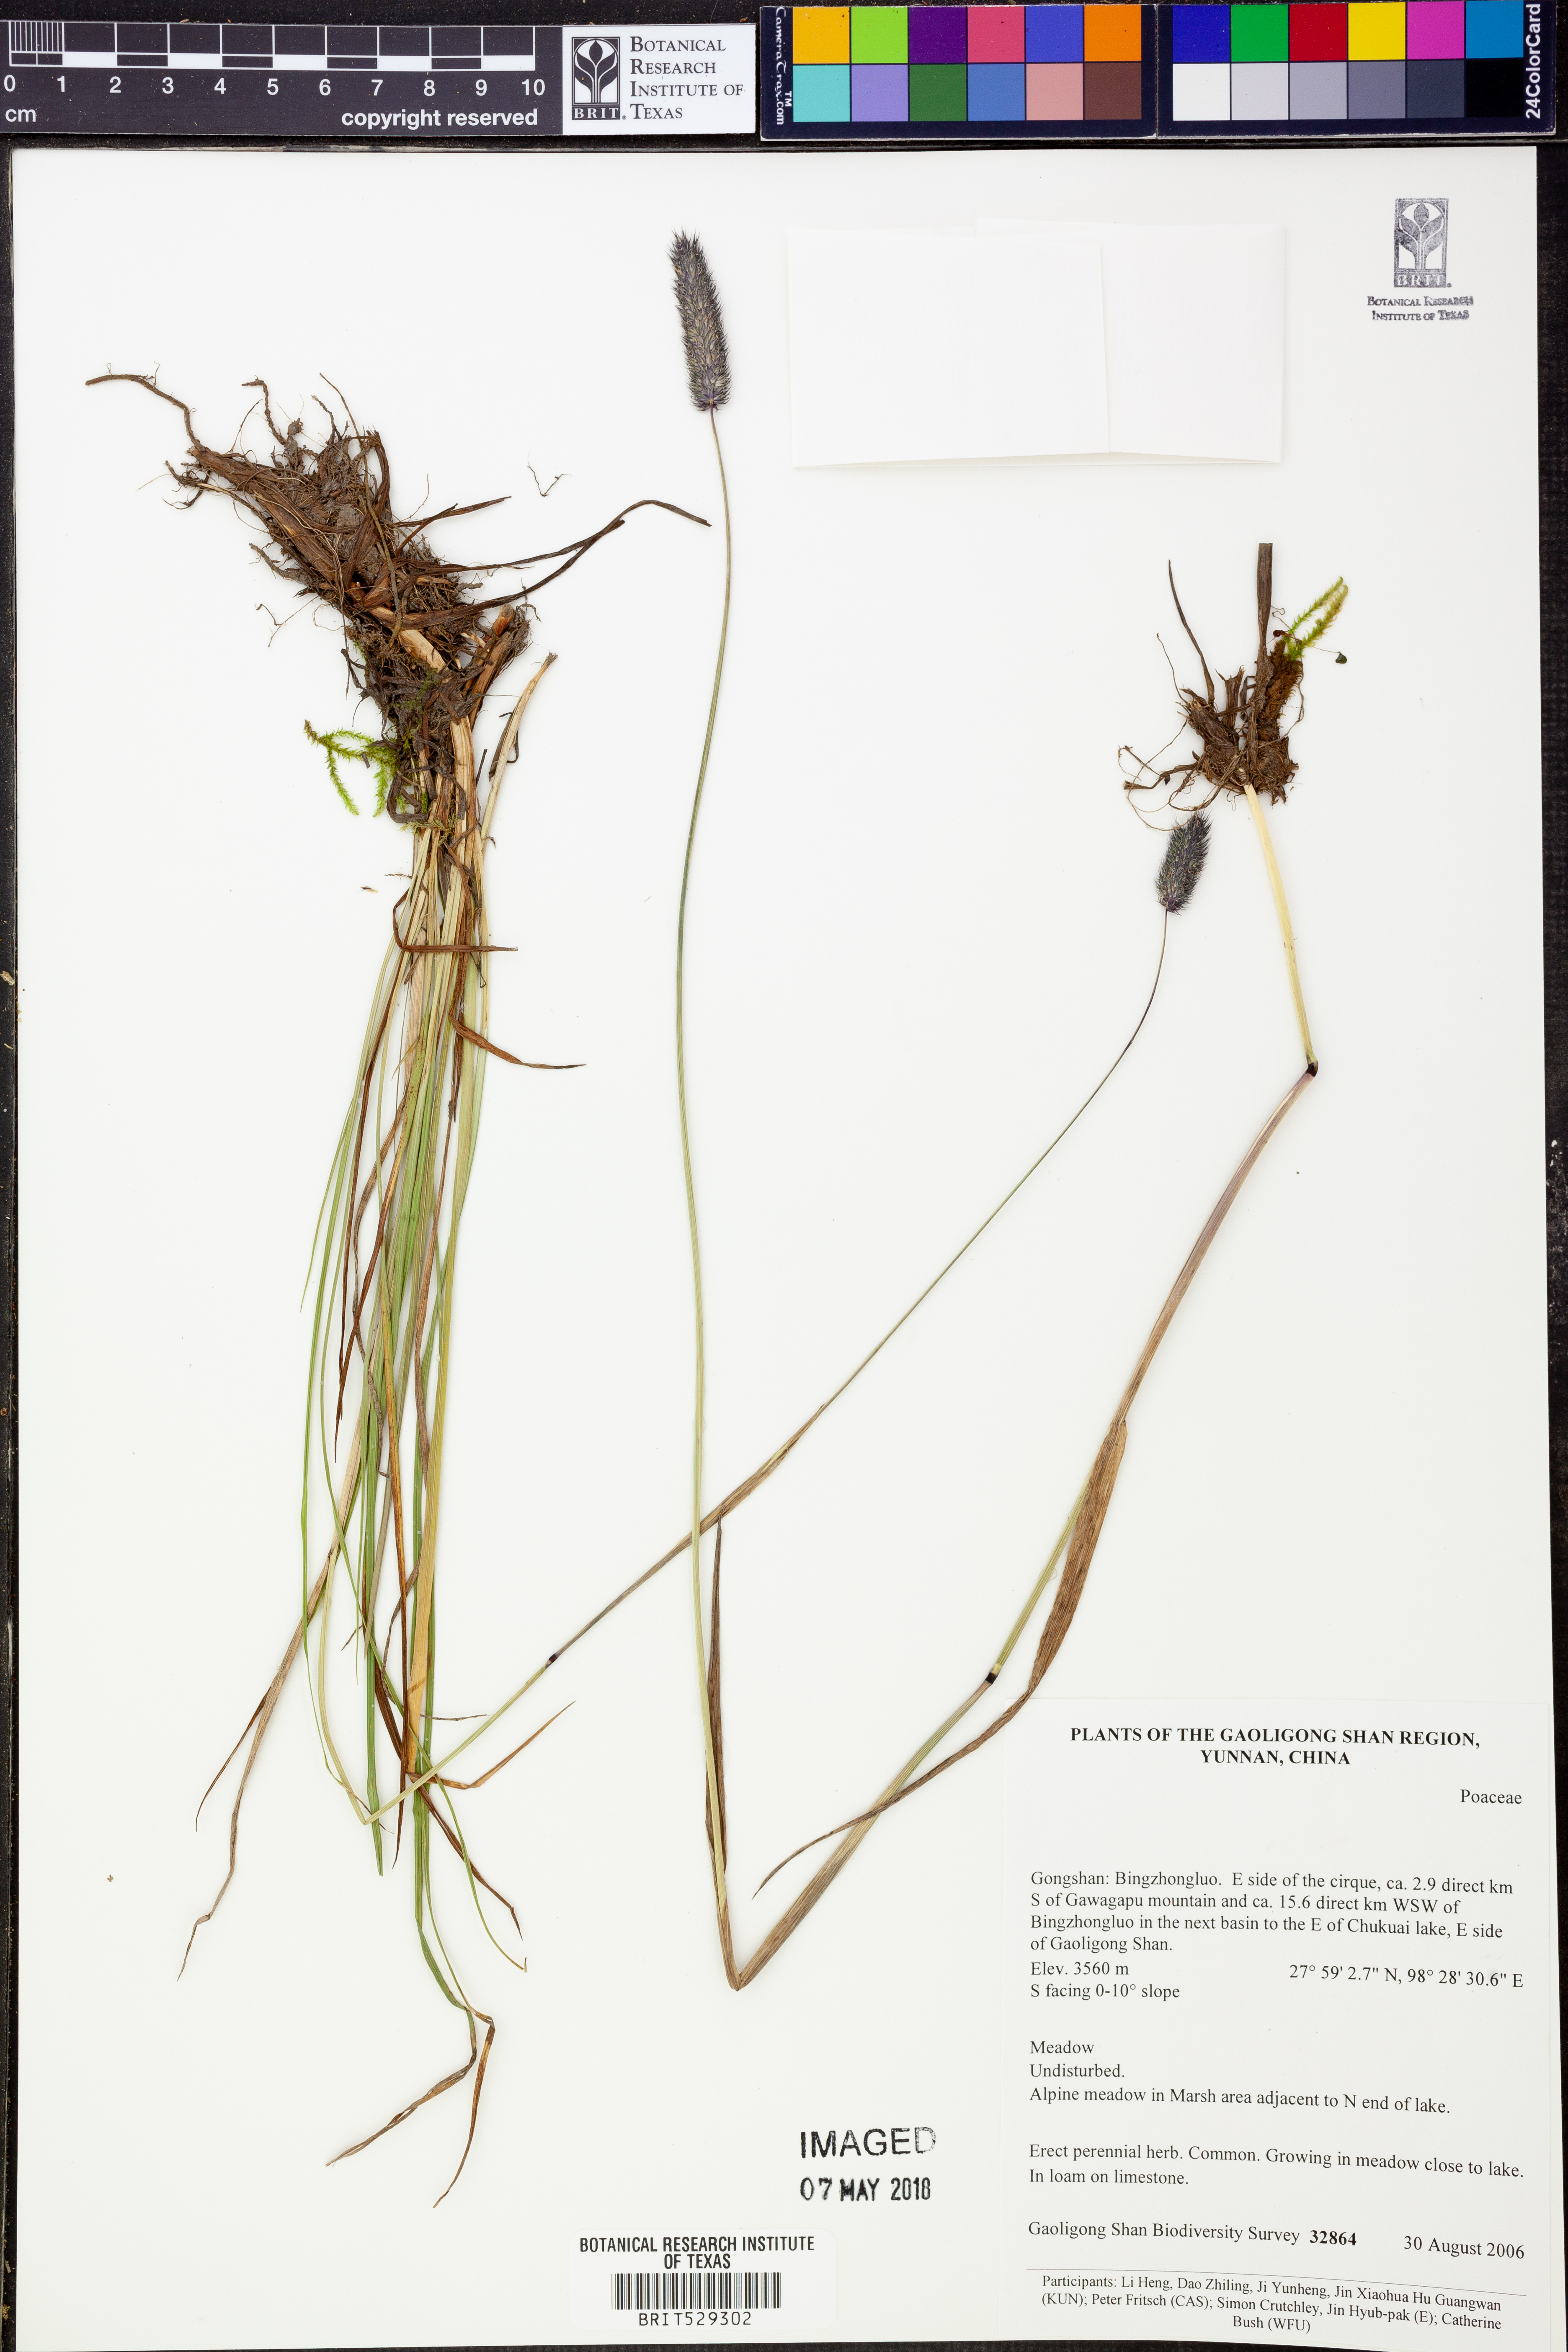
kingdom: Plantae
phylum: Tracheophyta
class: Liliopsida
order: Poales
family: Poaceae
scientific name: Poaceae
